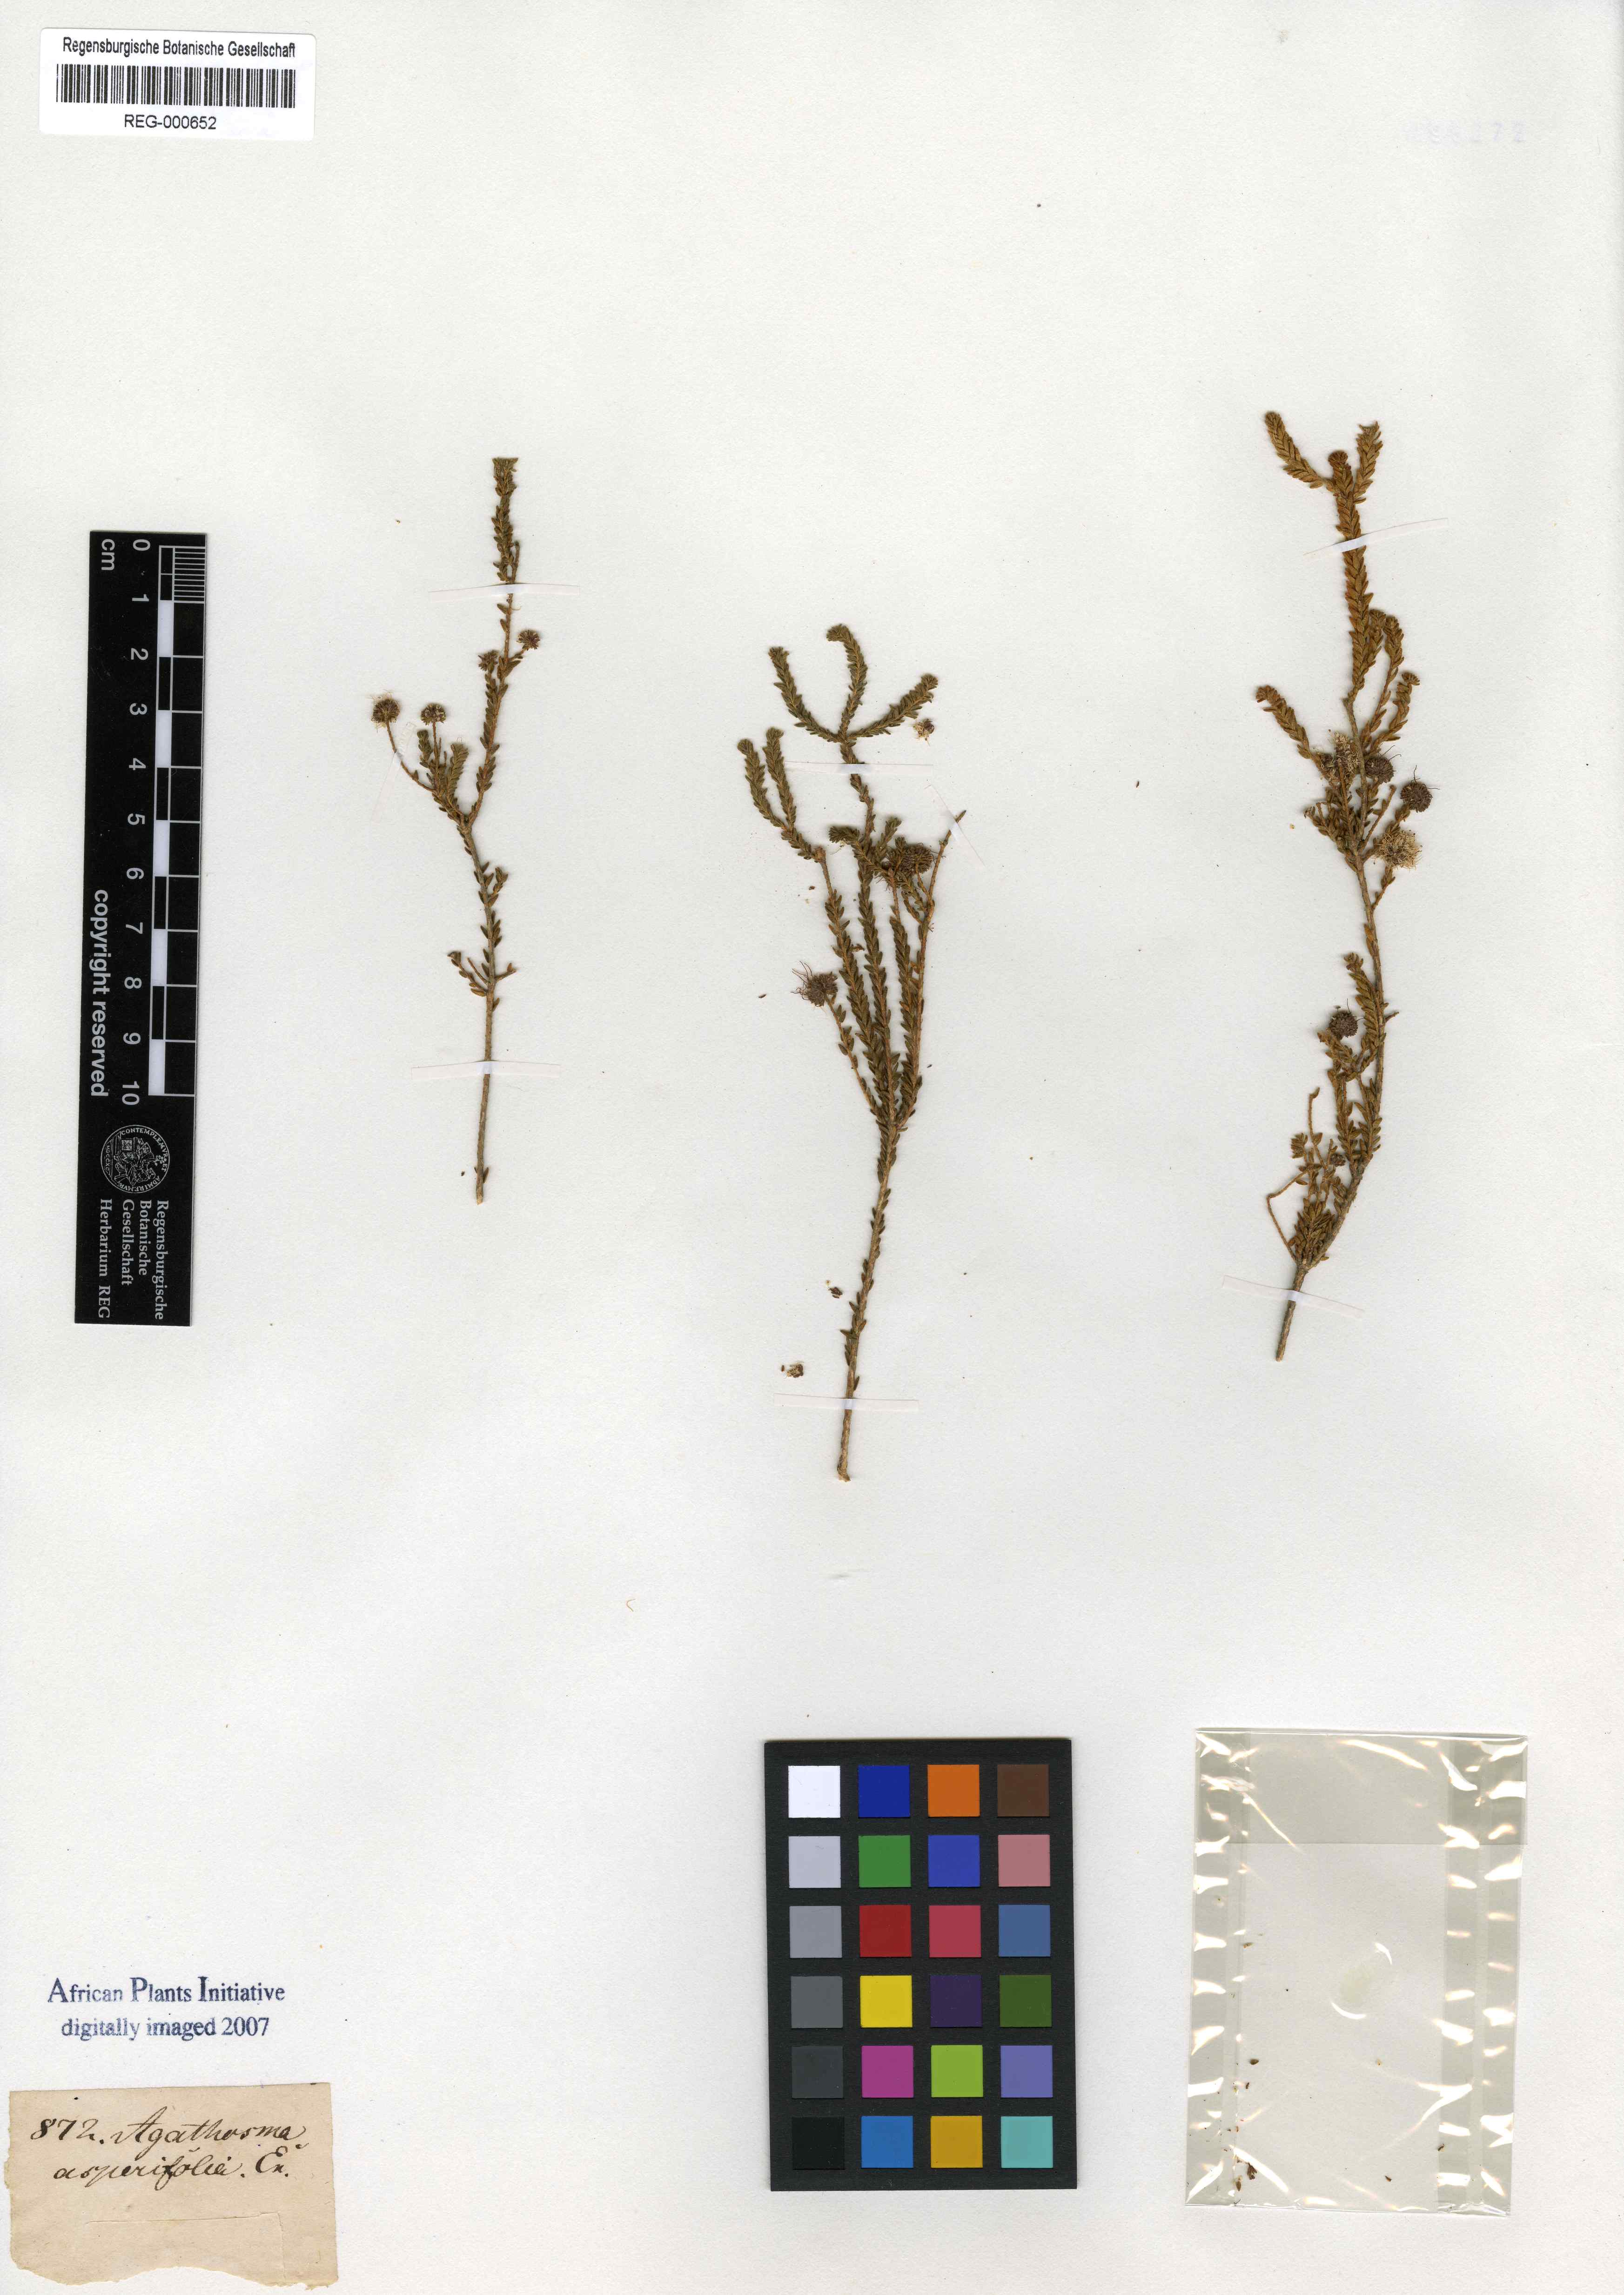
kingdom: Plantae
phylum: Tracheophyta
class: Magnoliopsida
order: Sapindales
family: Rutaceae
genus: Agathosma
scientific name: Agathosma asperifolia
